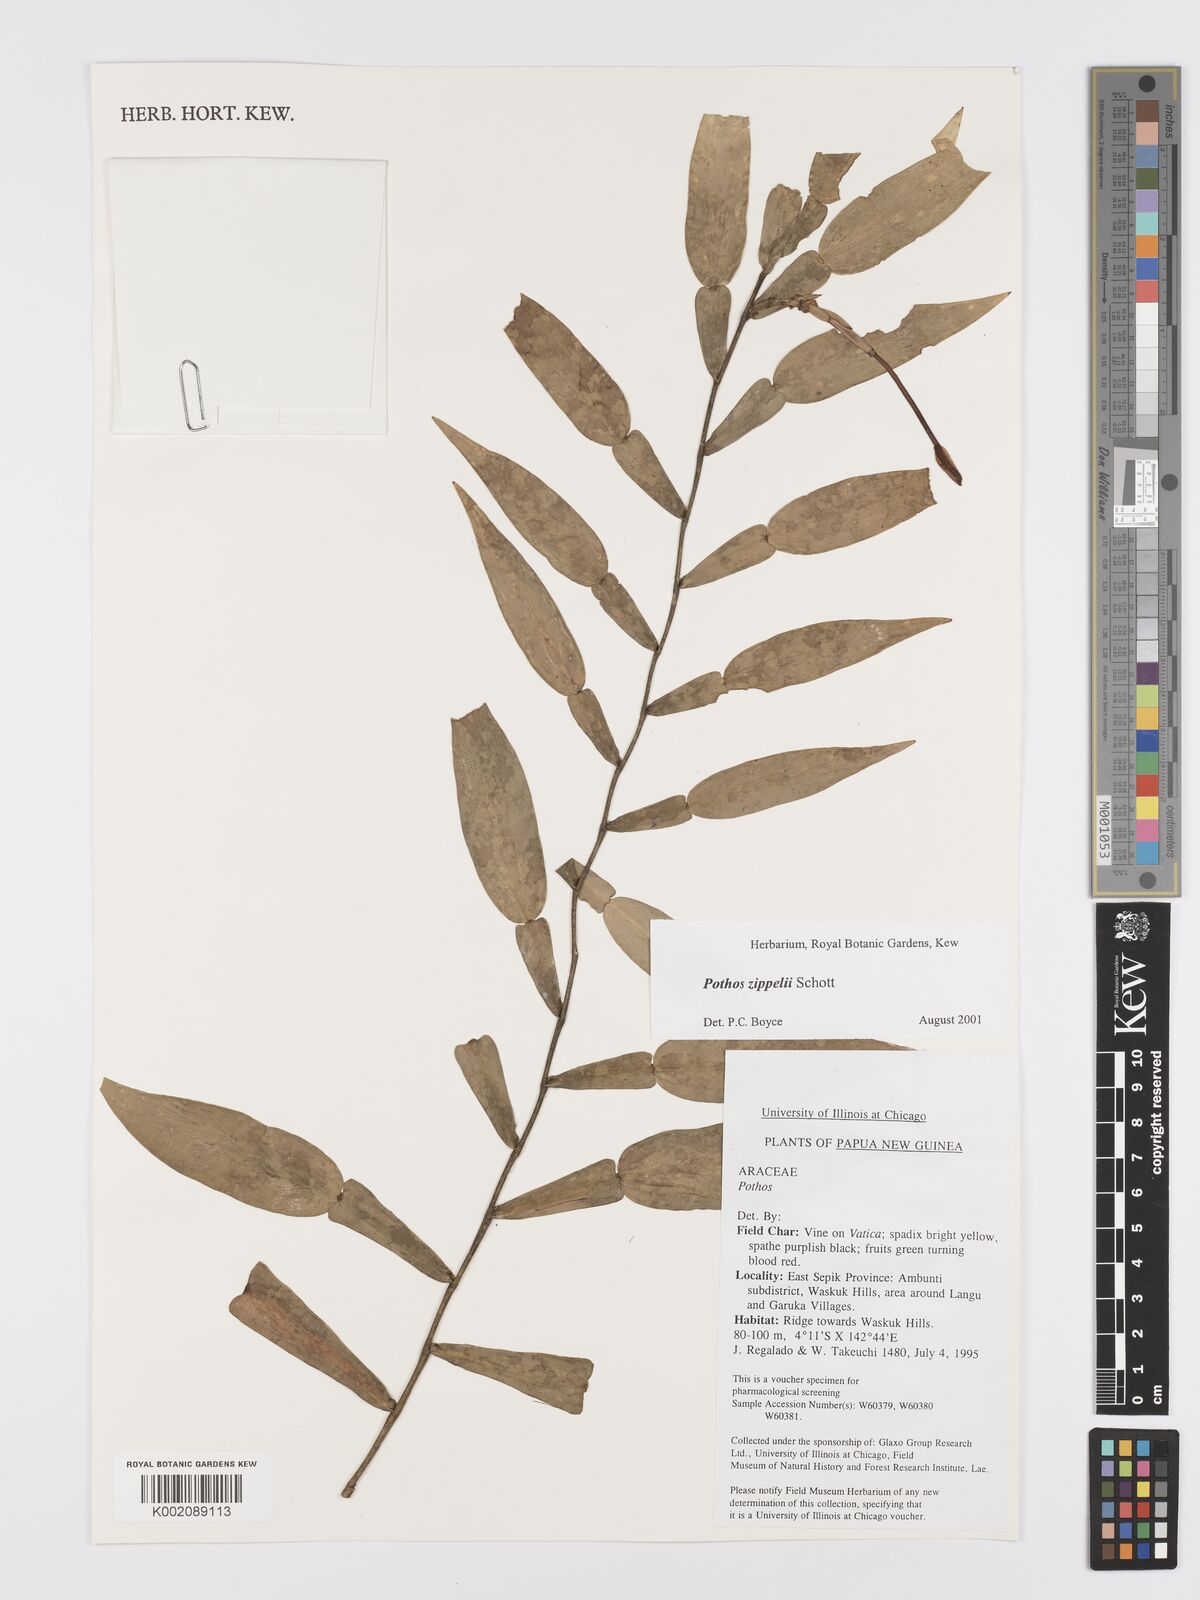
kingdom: Plantae
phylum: Tracheophyta
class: Liliopsida
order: Alismatales
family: Araceae
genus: Pothos
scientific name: Pothos zippelii
